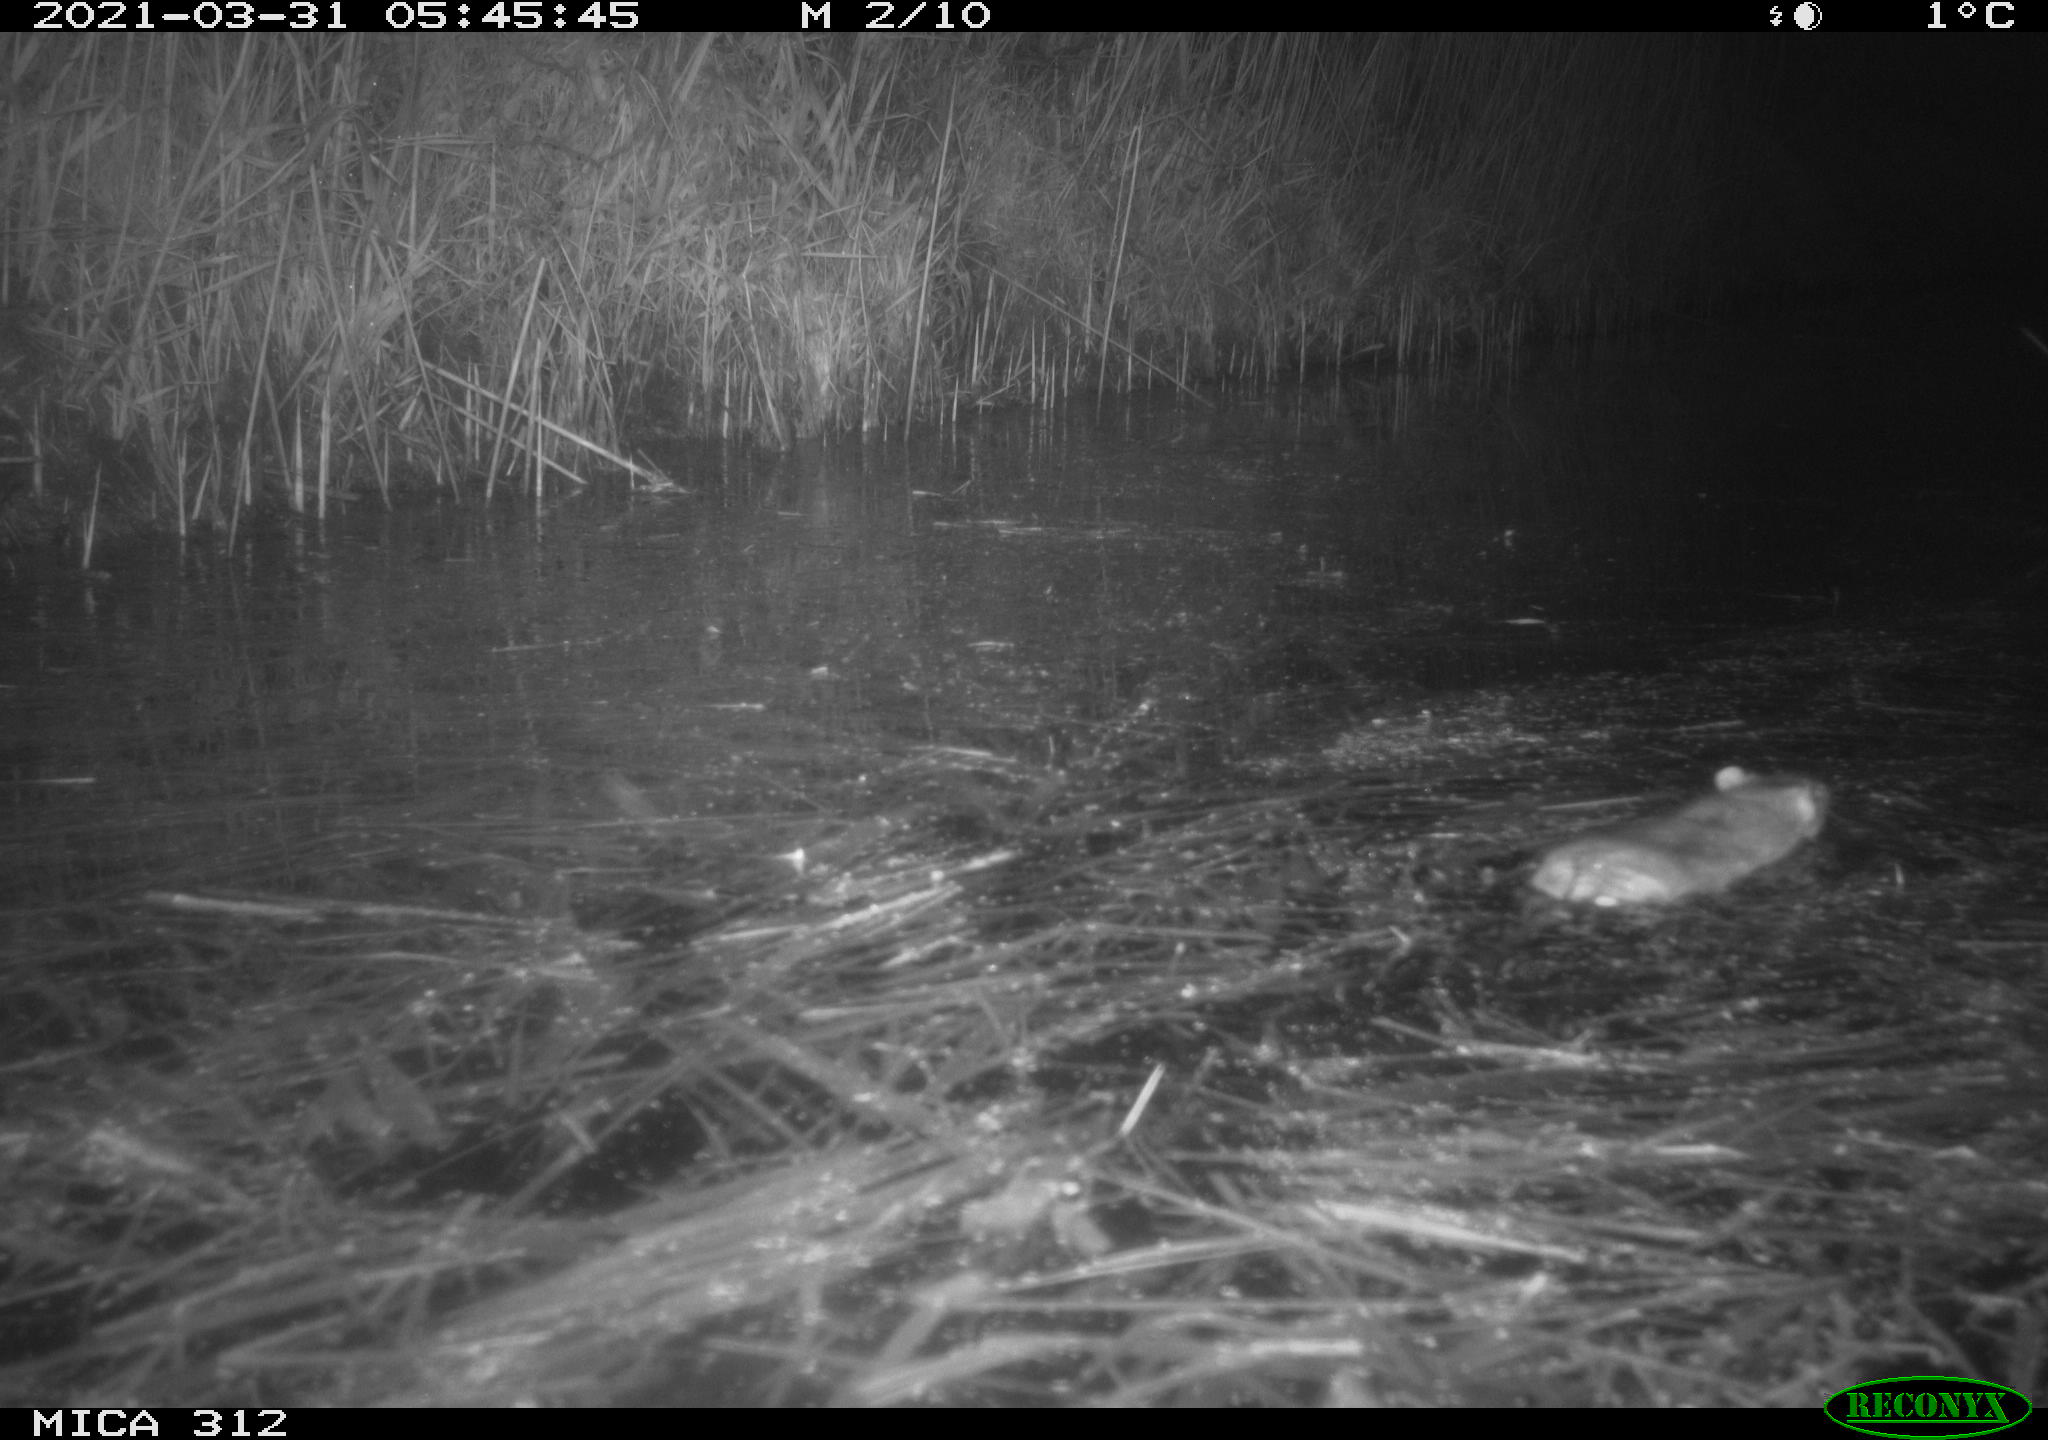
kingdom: Animalia
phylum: Chordata
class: Mammalia
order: Rodentia
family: Muridae
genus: Rattus
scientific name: Rattus norvegicus
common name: Brown rat
